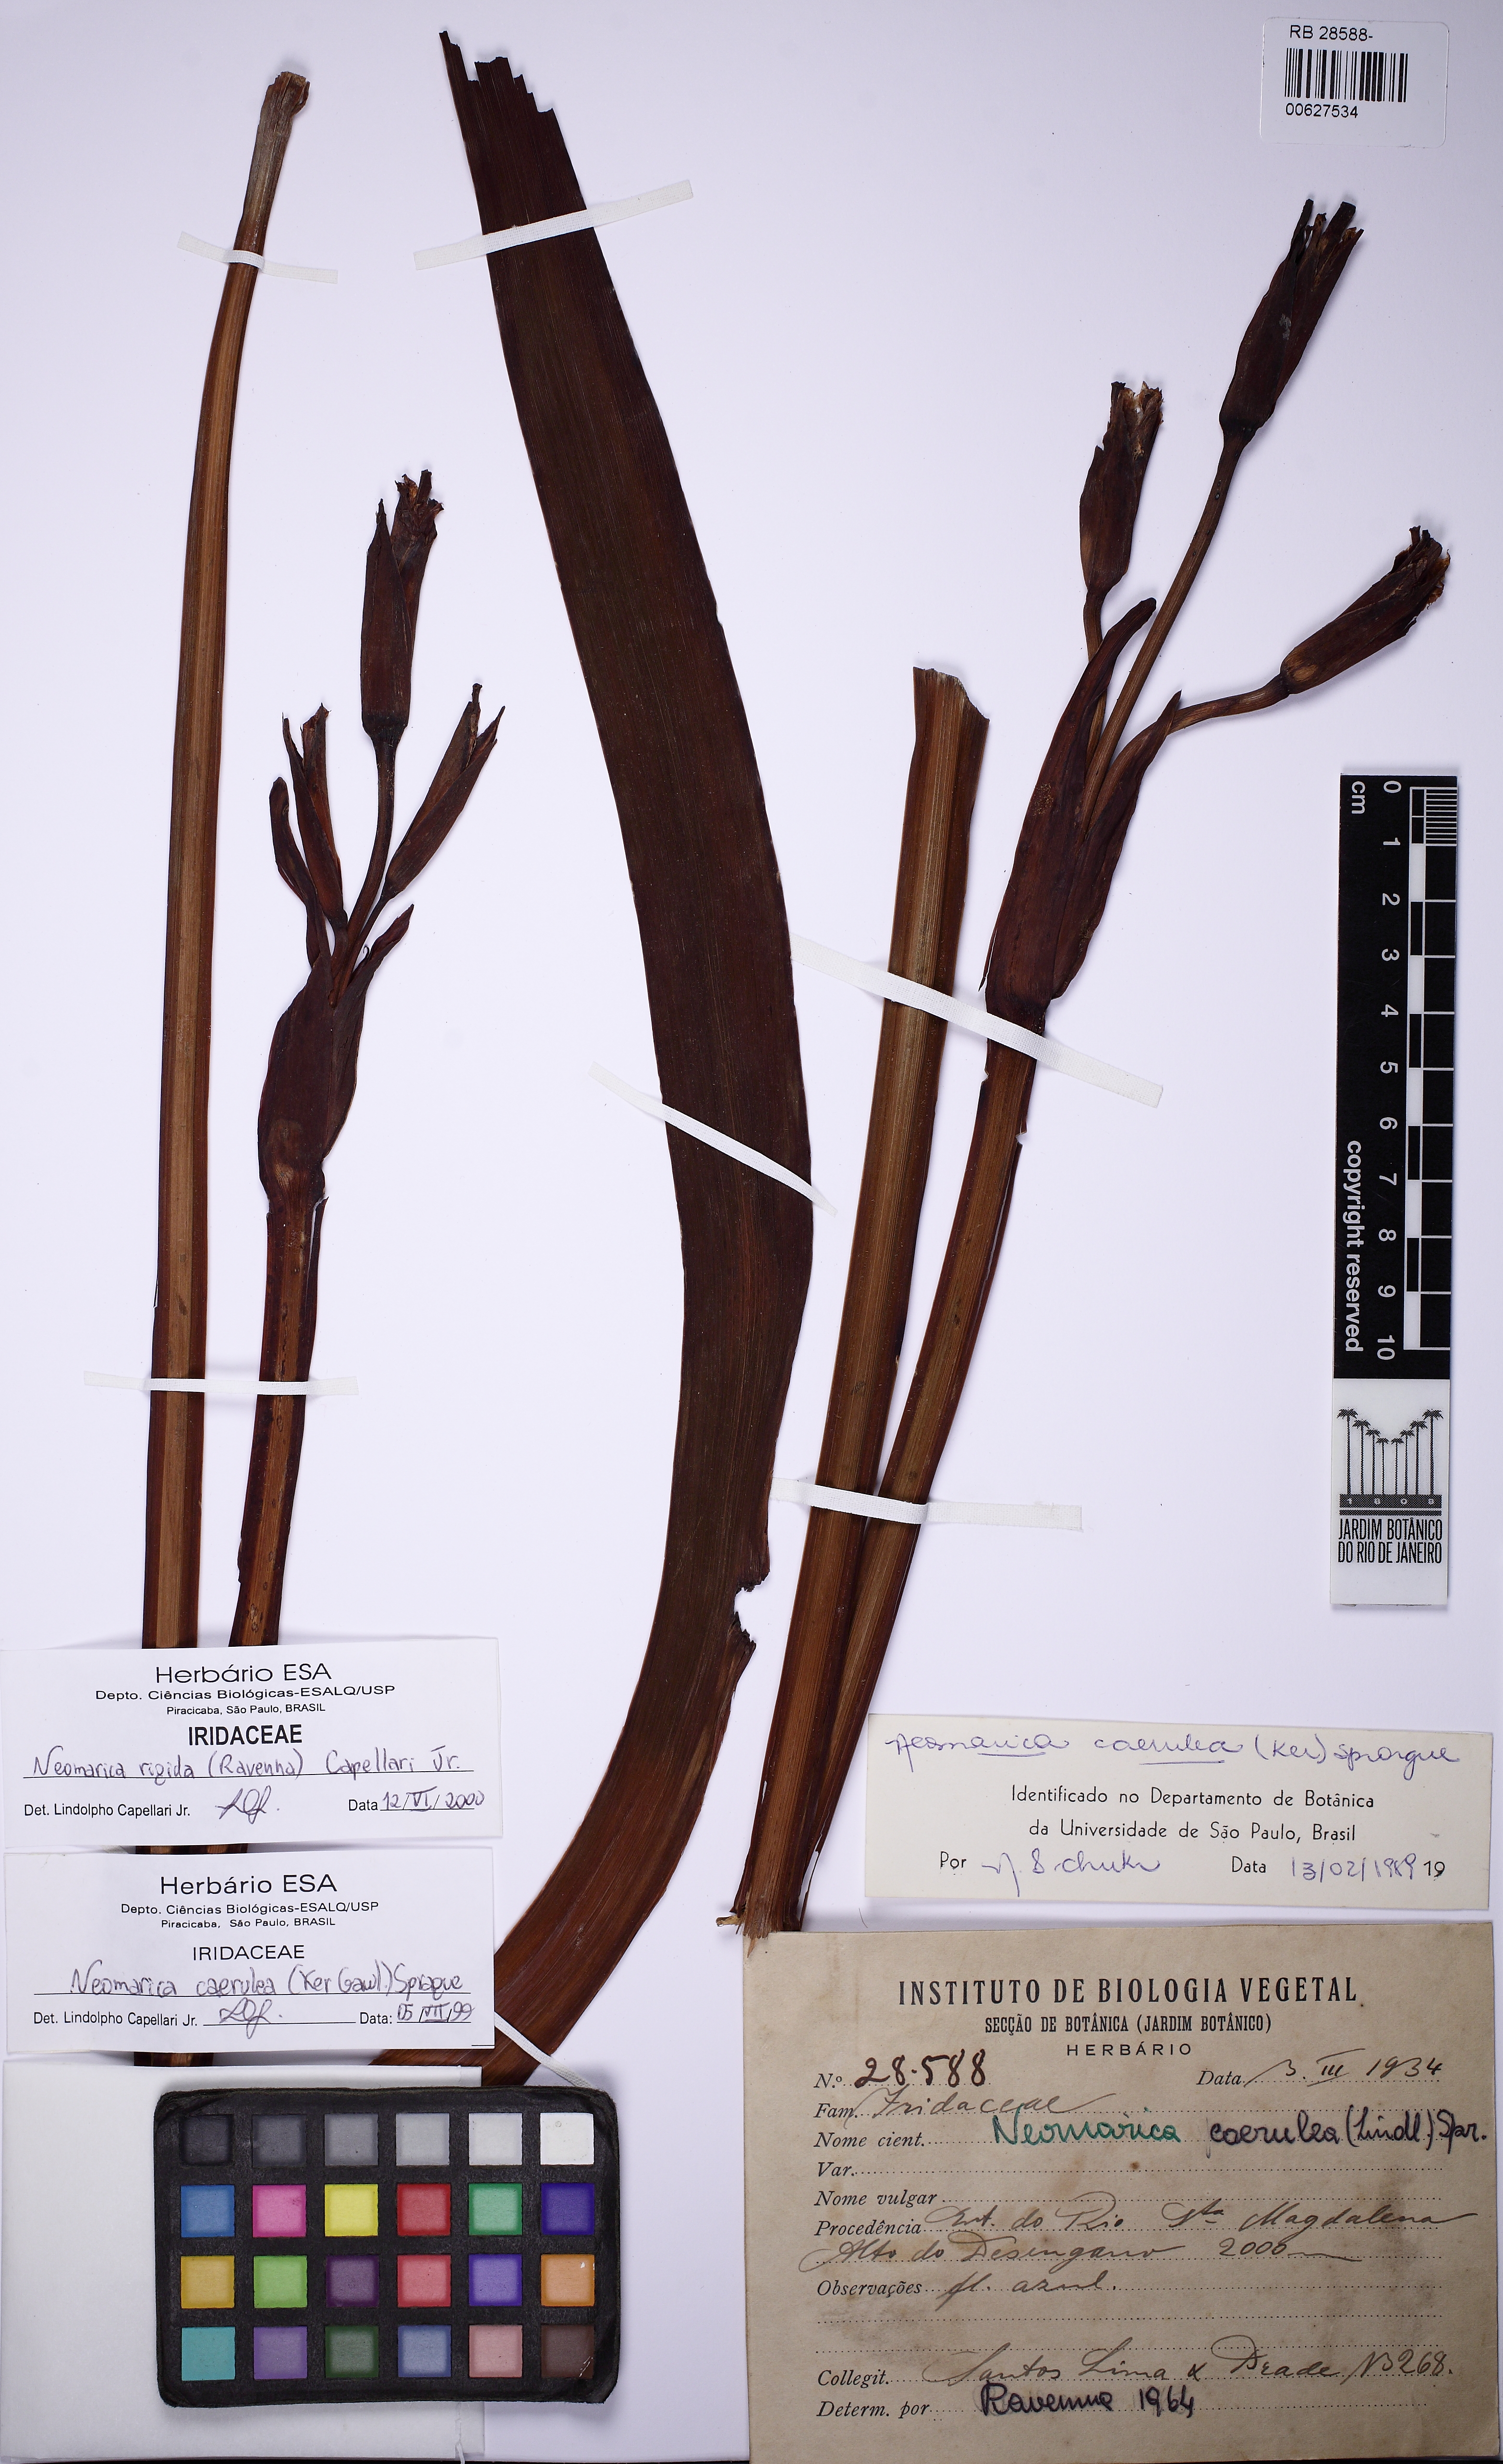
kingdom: Plantae
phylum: Tracheophyta
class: Liliopsida
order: Asparagales
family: Iridaceae
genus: Trimezia
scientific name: Trimezia coerulea
